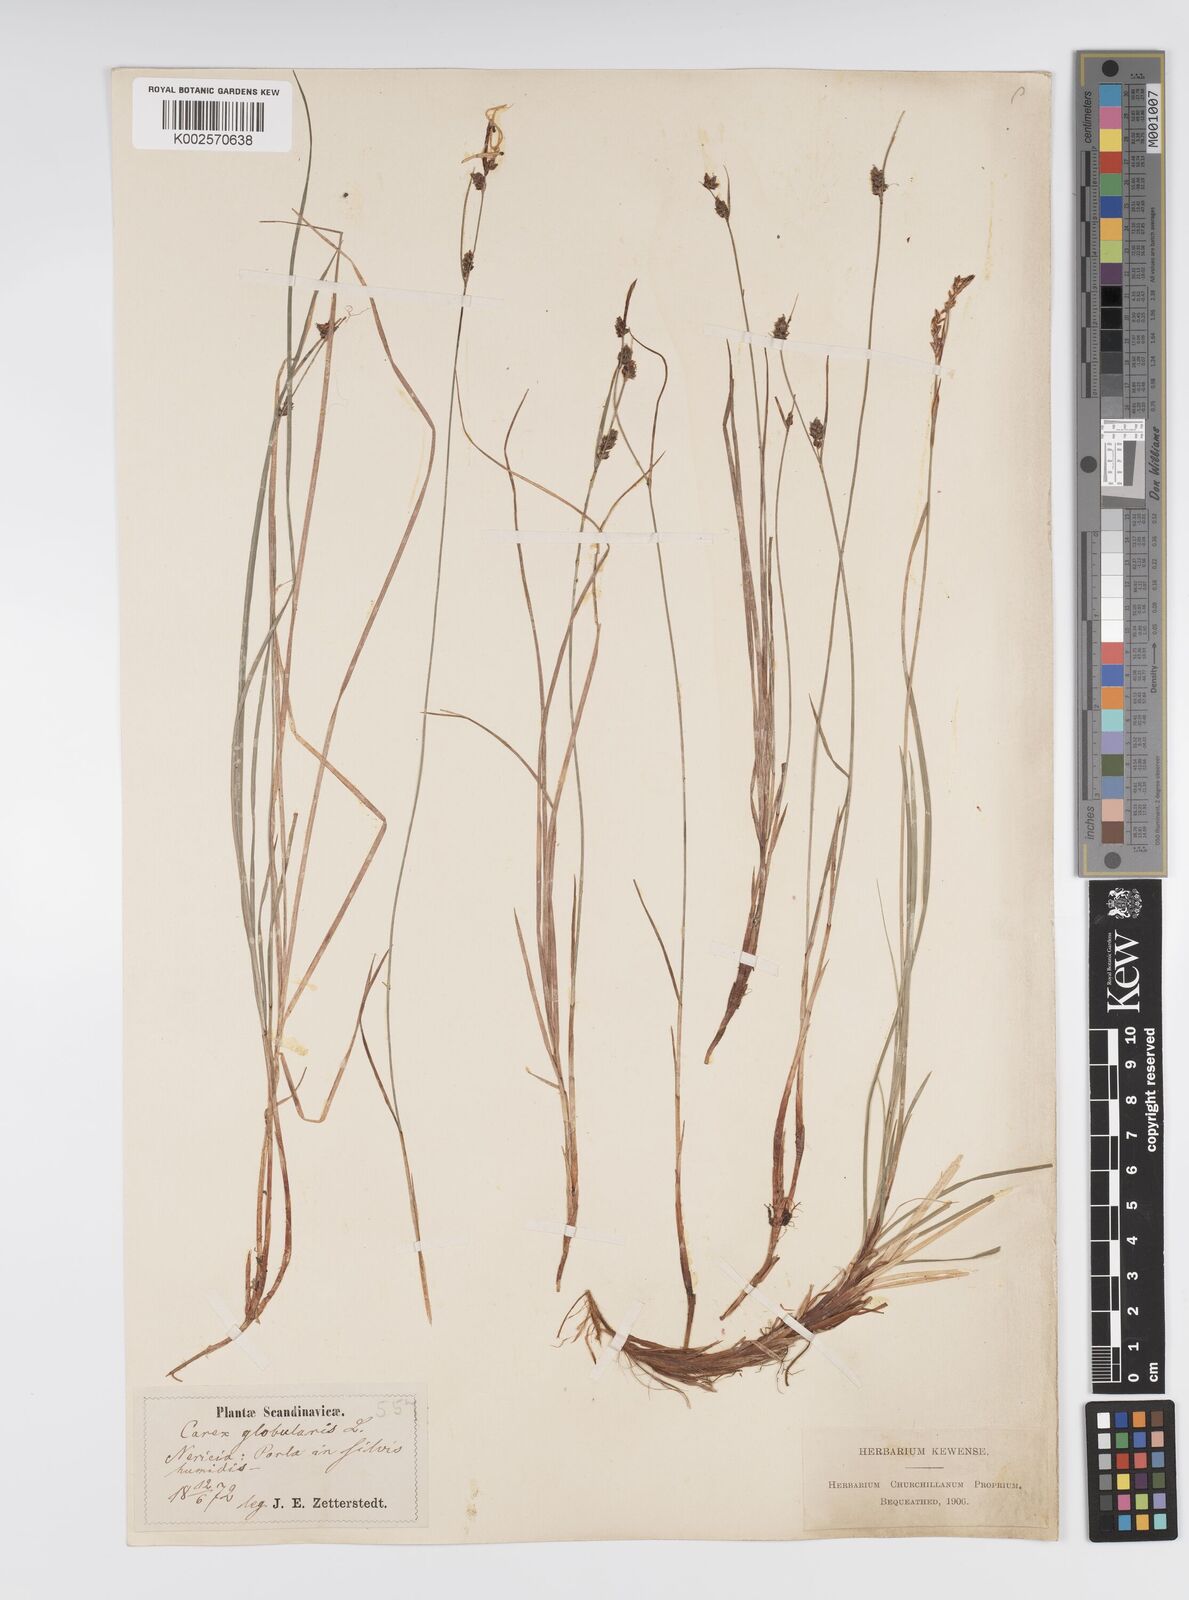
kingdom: Plantae
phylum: Tracheophyta
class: Liliopsida
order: Poales
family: Cyperaceae
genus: Carex
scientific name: Carex globularis
